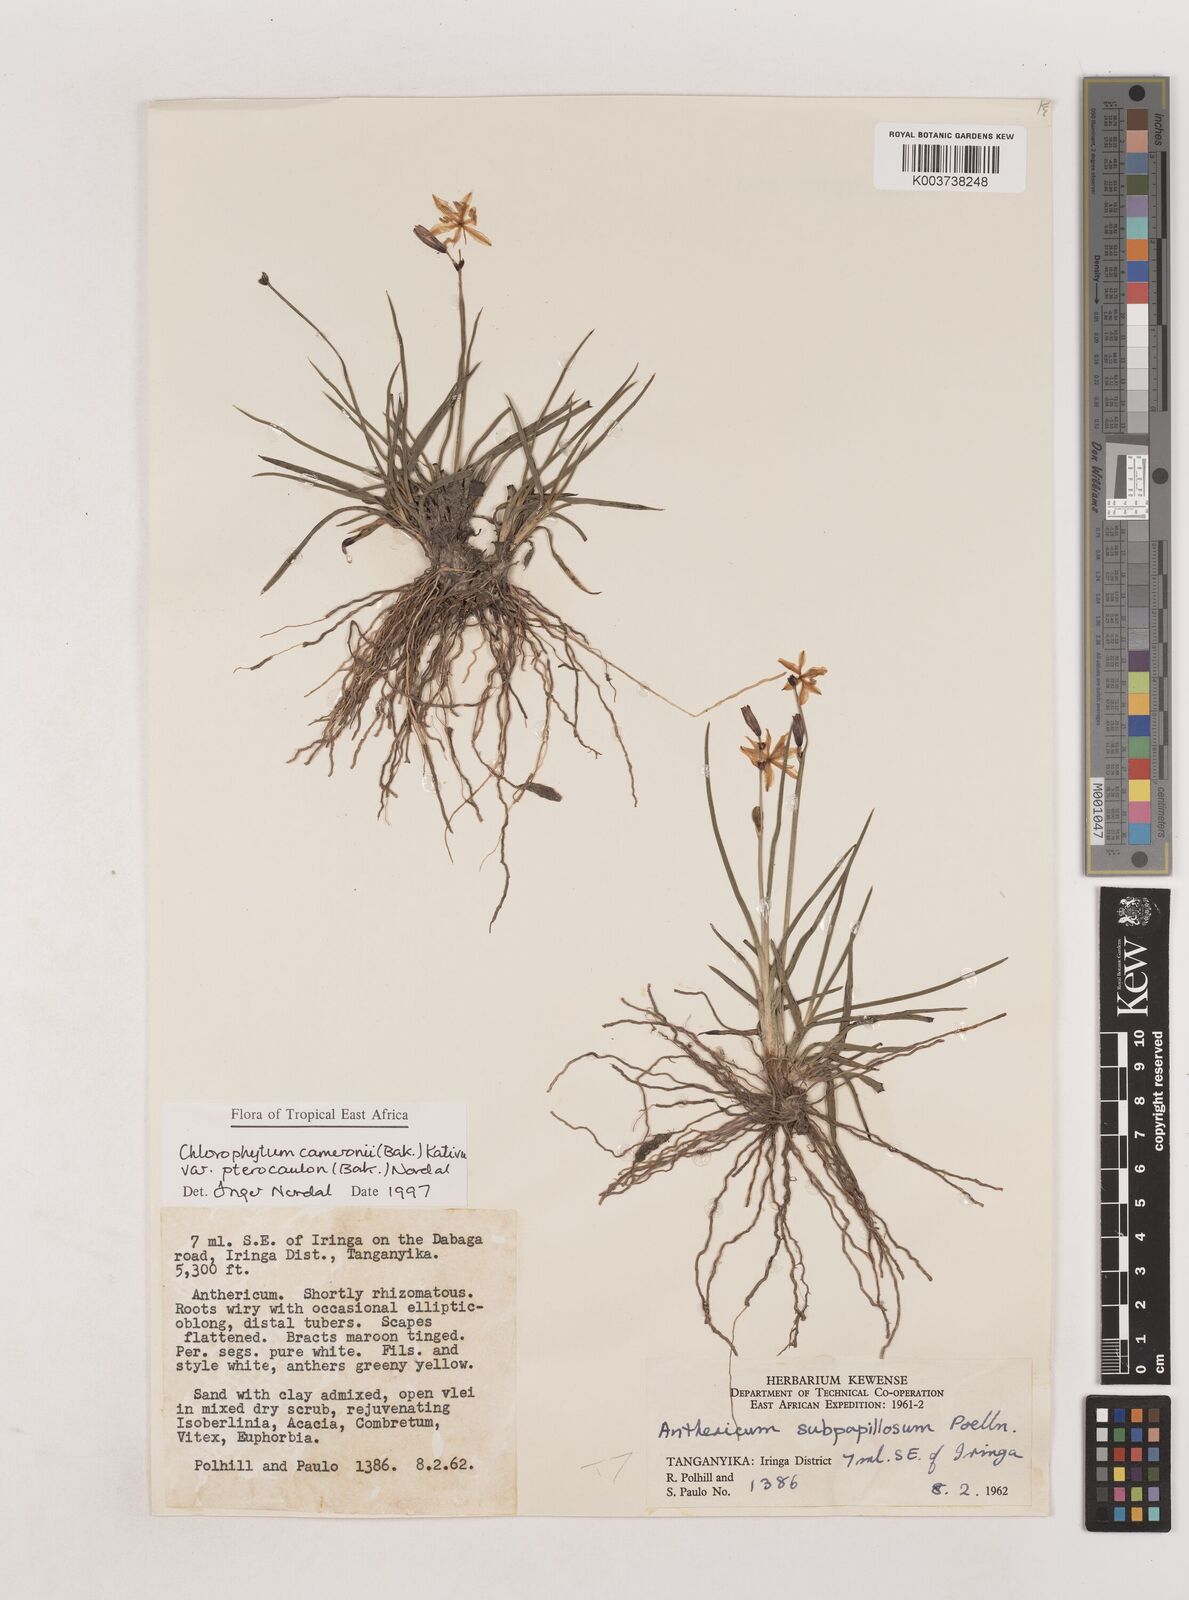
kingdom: Plantae
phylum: Tracheophyta
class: Liliopsida
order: Asparagales
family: Asparagaceae
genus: Chlorophytum
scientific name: Chlorophytum cameronii
